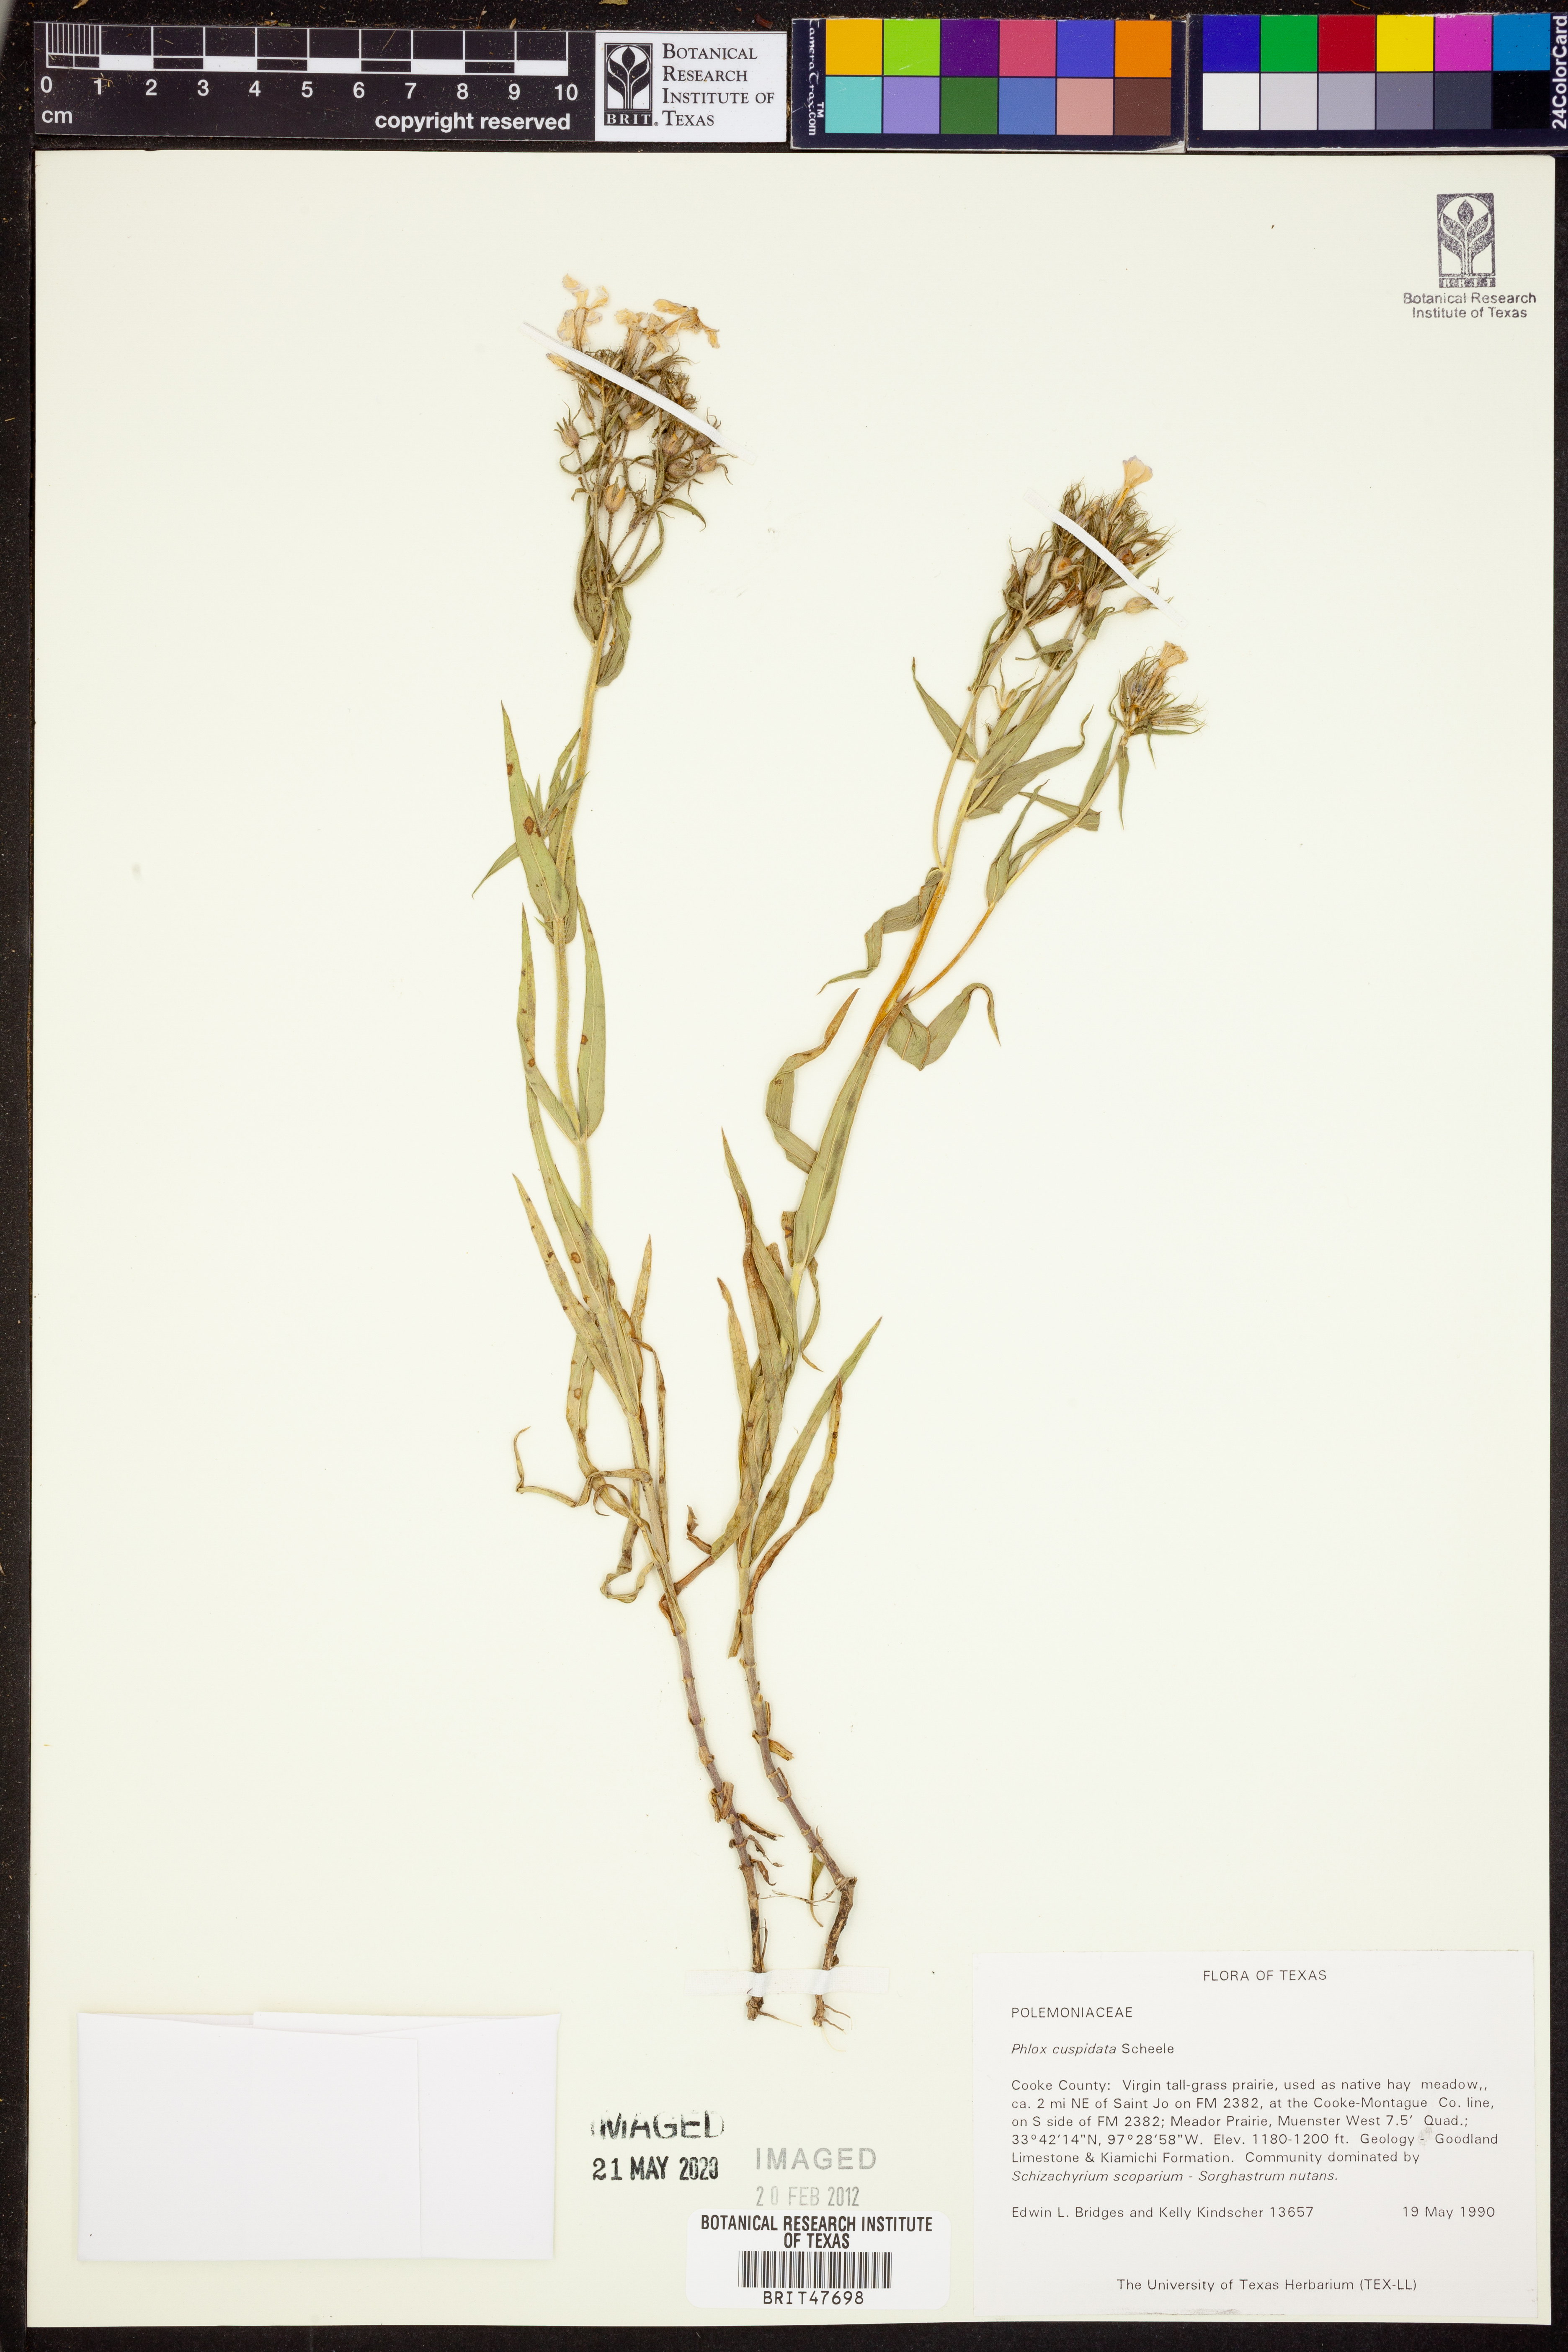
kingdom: Plantae
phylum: Tracheophyta
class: Magnoliopsida
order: Ericales
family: Polemoniaceae
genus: Phlox
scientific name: Phlox cuspidata
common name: Pointed phlox
